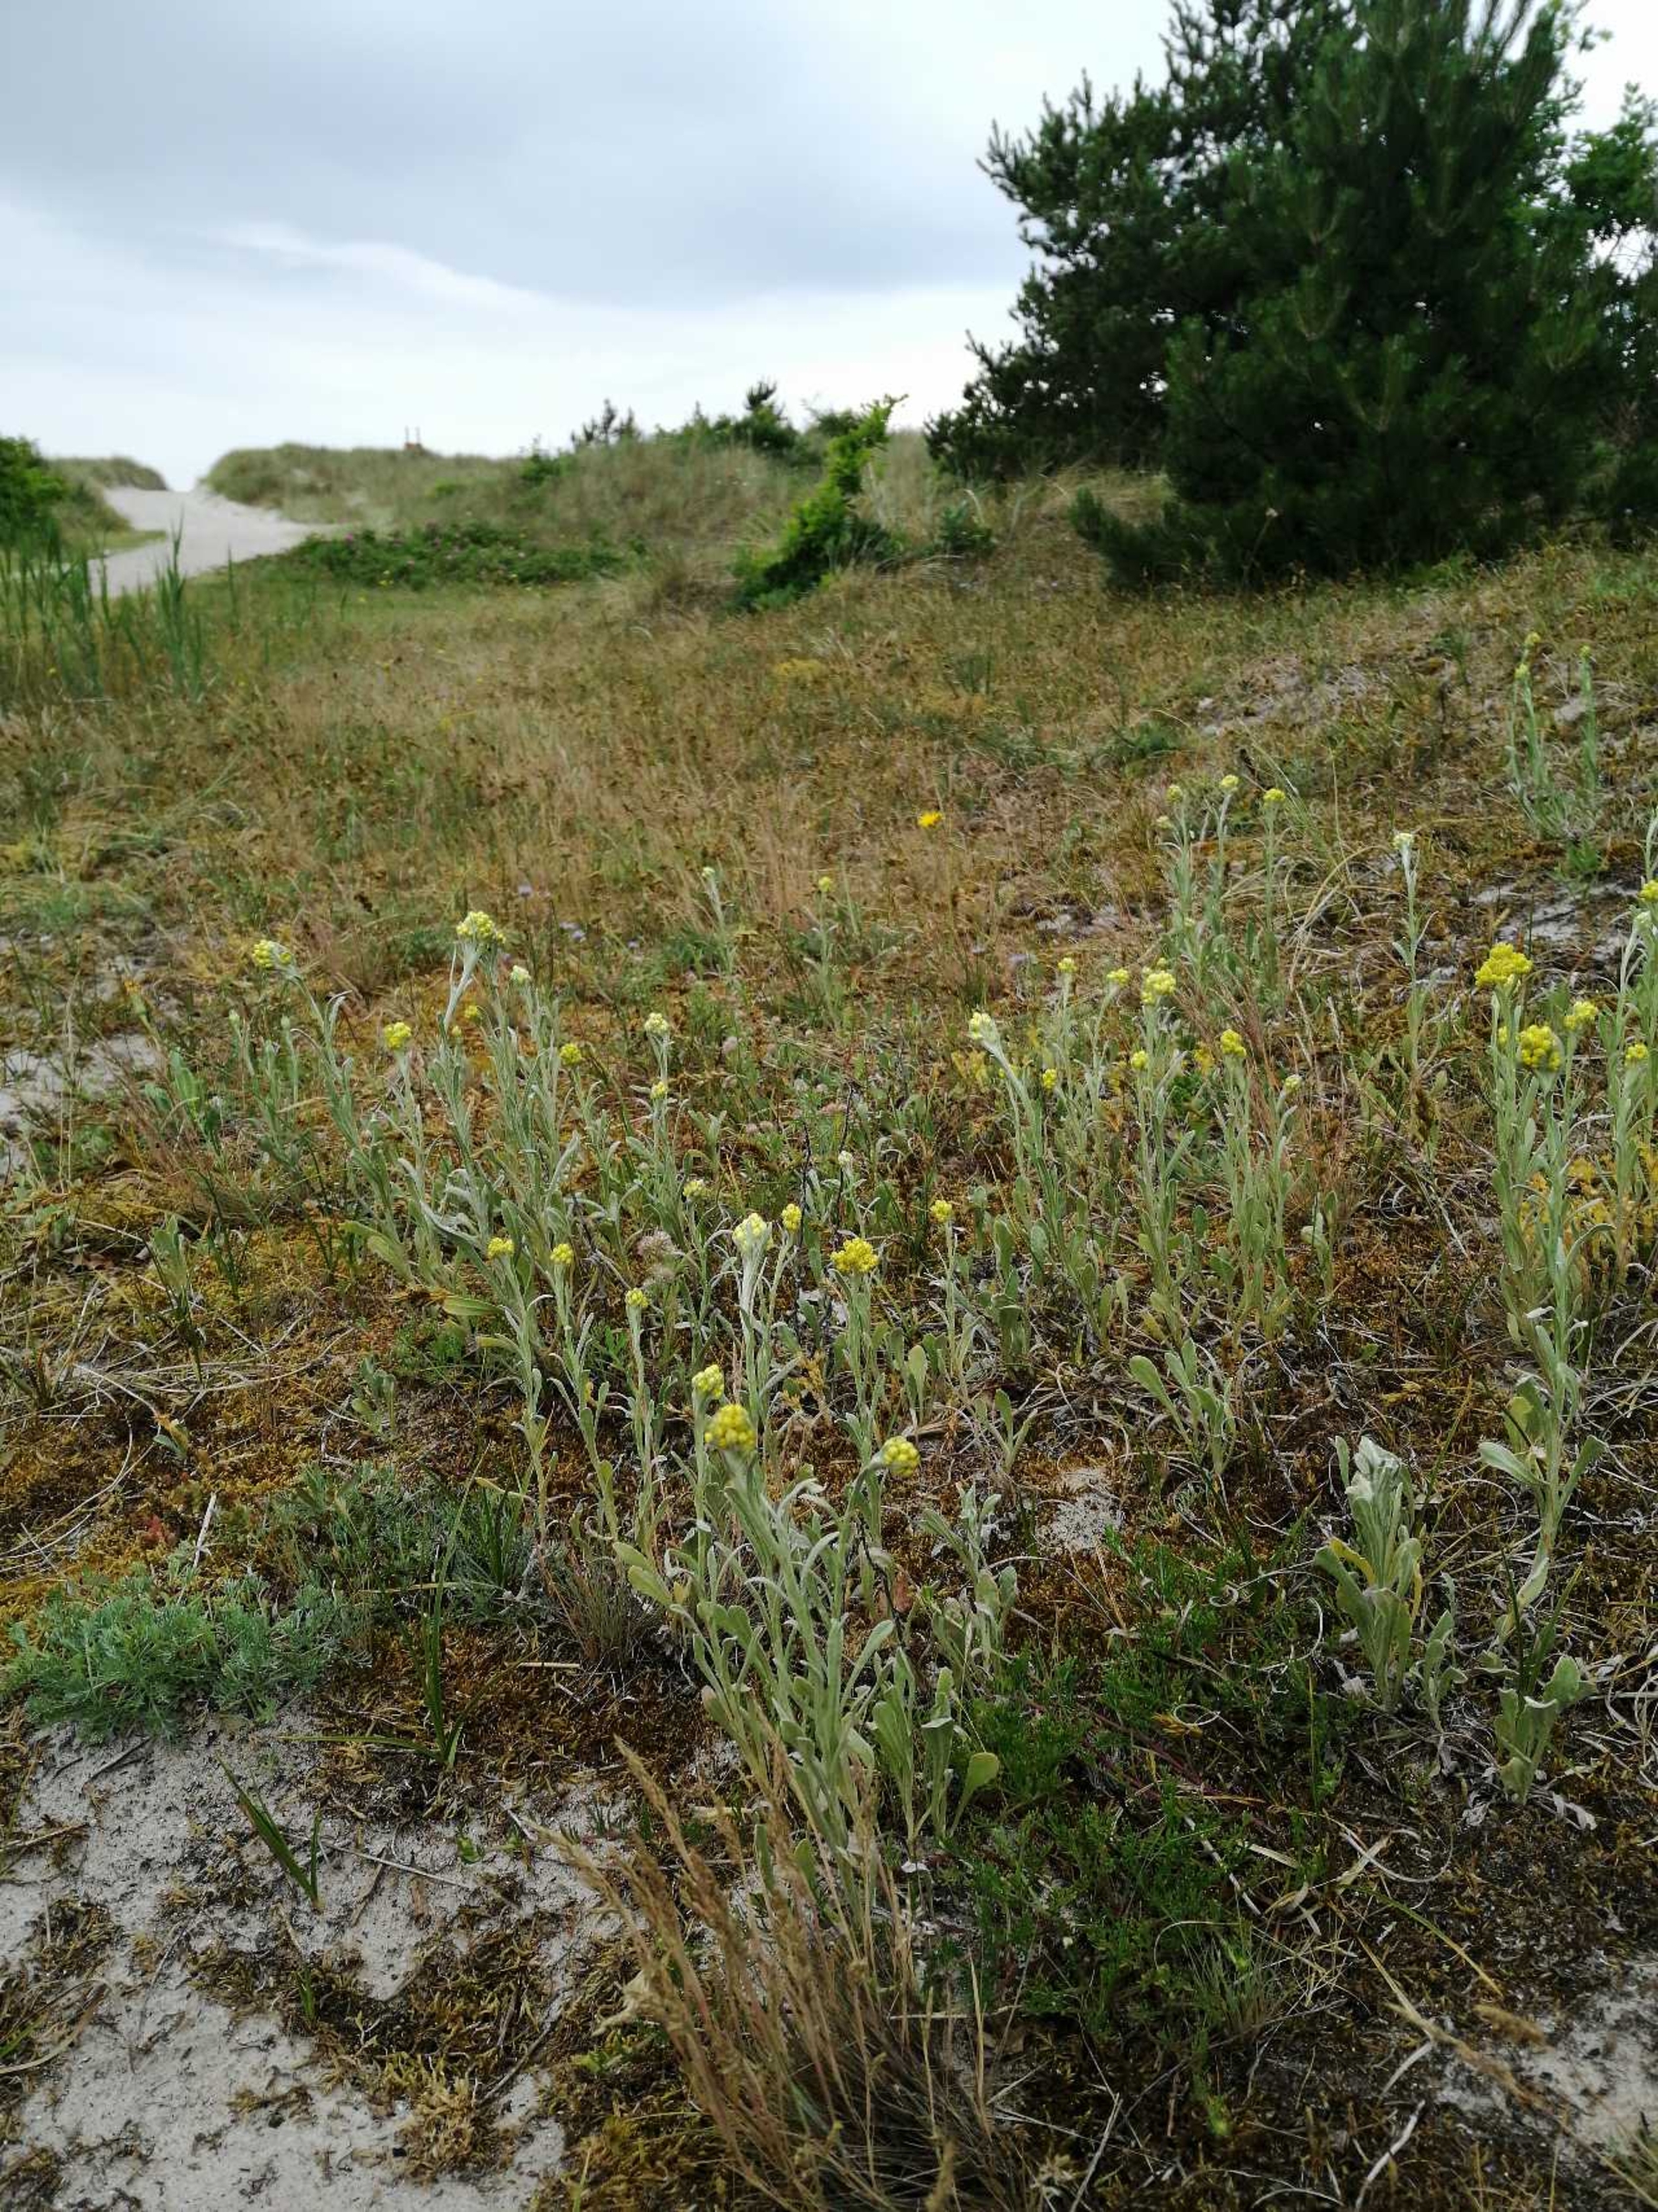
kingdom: Plantae
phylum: Tracheophyta
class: Magnoliopsida
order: Asterales
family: Asteraceae
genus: Helichrysum
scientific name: Helichrysum arenarium
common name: Gul evighedsblomst
